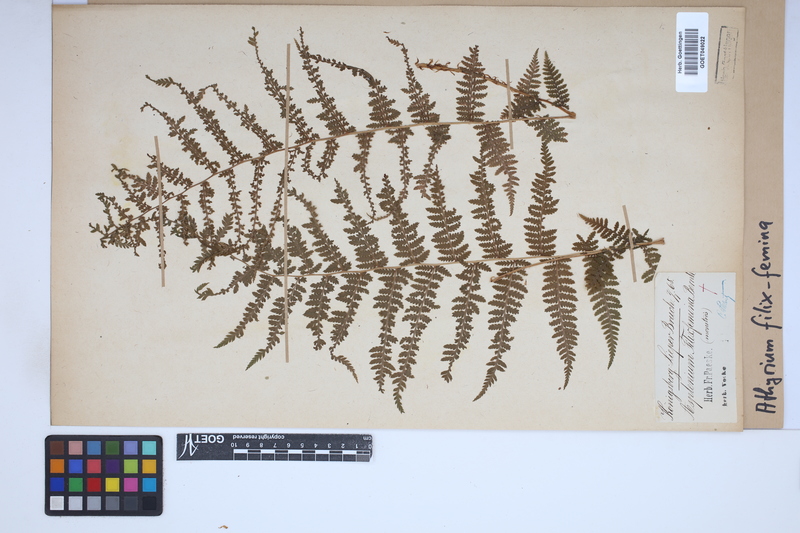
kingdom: Plantae
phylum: Tracheophyta
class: Polypodiopsida
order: Polypodiales
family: Athyriaceae
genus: Athyrium
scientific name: Athyrium filix-femina
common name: Lady fern
